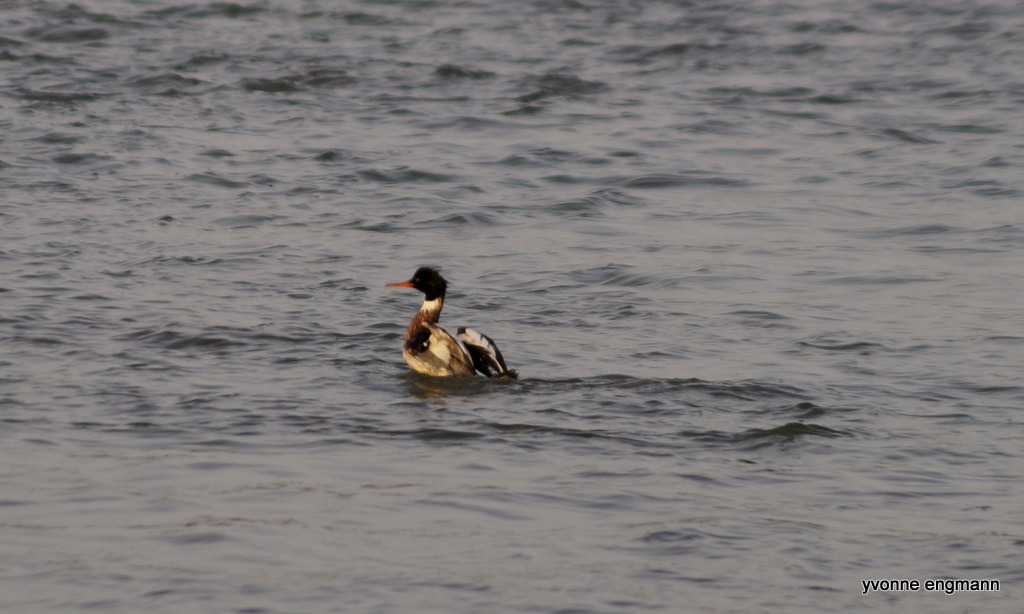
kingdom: Animalia
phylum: Chordata
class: Aves
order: Anseriformes
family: Anatidae
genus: Mergus
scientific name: Mergus serrator
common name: Toppet skallesluger
